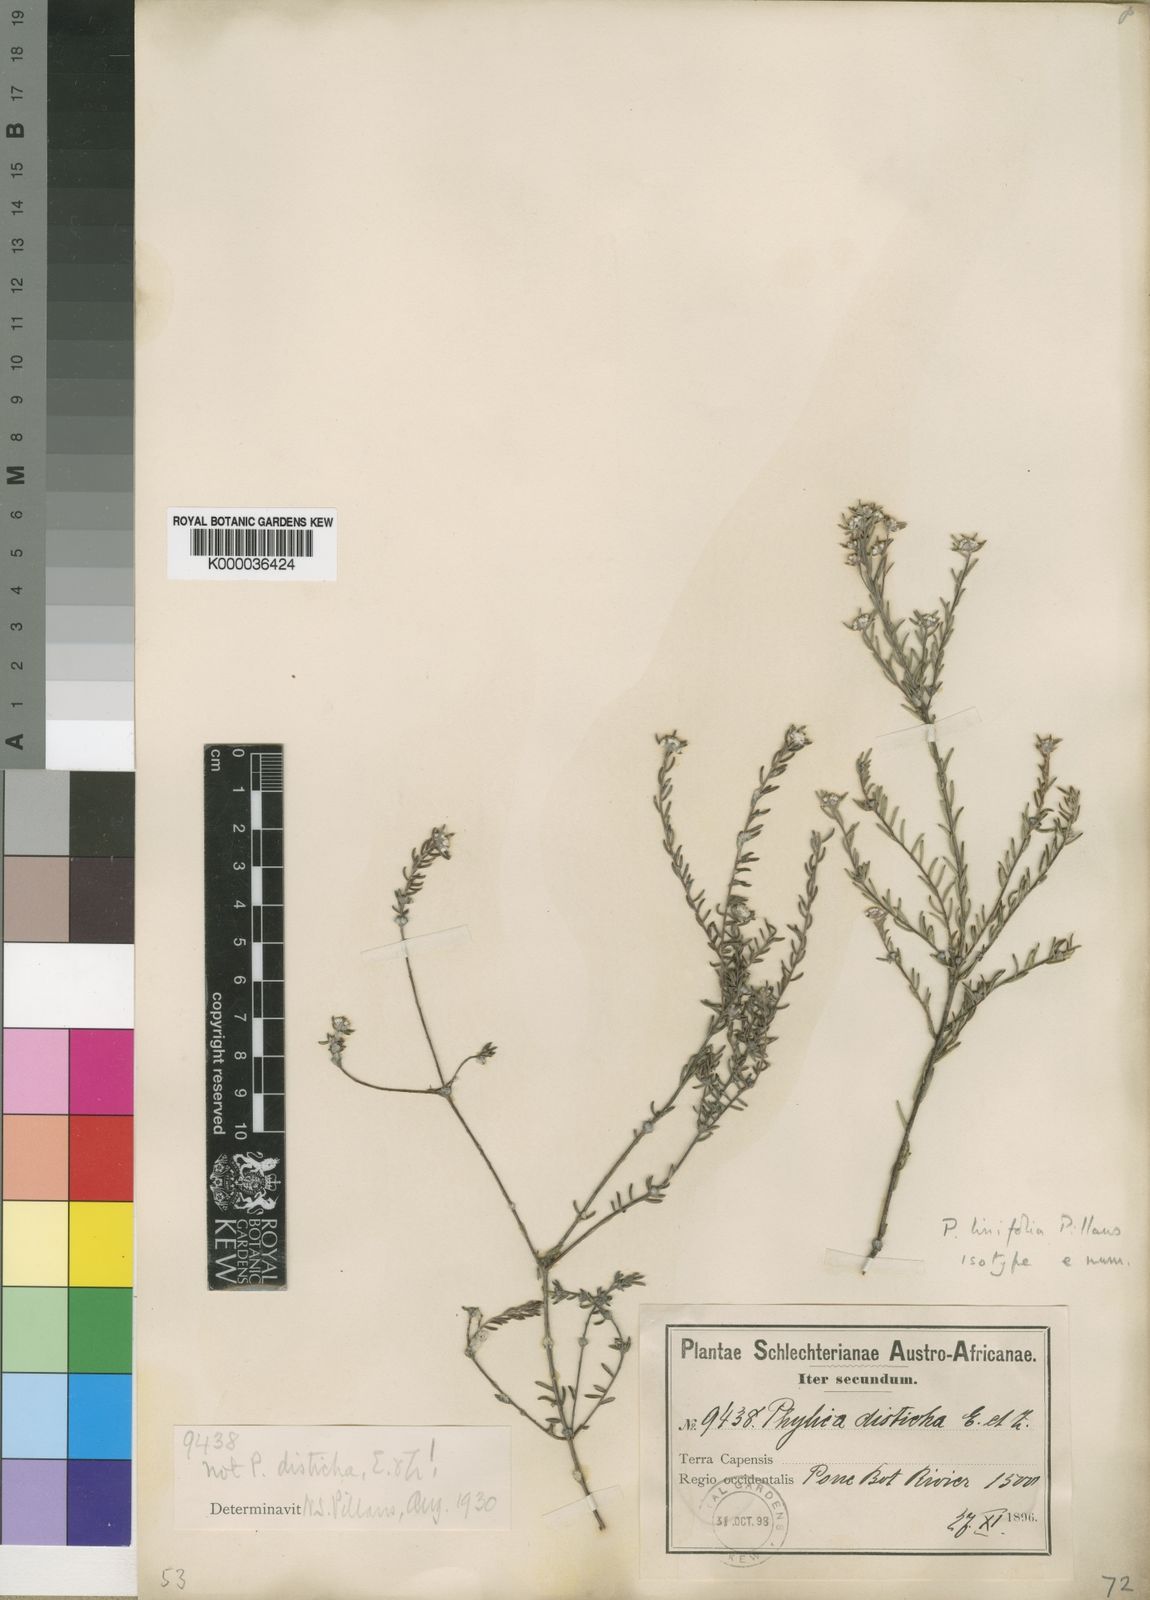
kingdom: Plantae
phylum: Tracheophyta
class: Magnoliopsida
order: Rosales
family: Rhamnaceae
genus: Phylica
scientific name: Phylica linifolia
